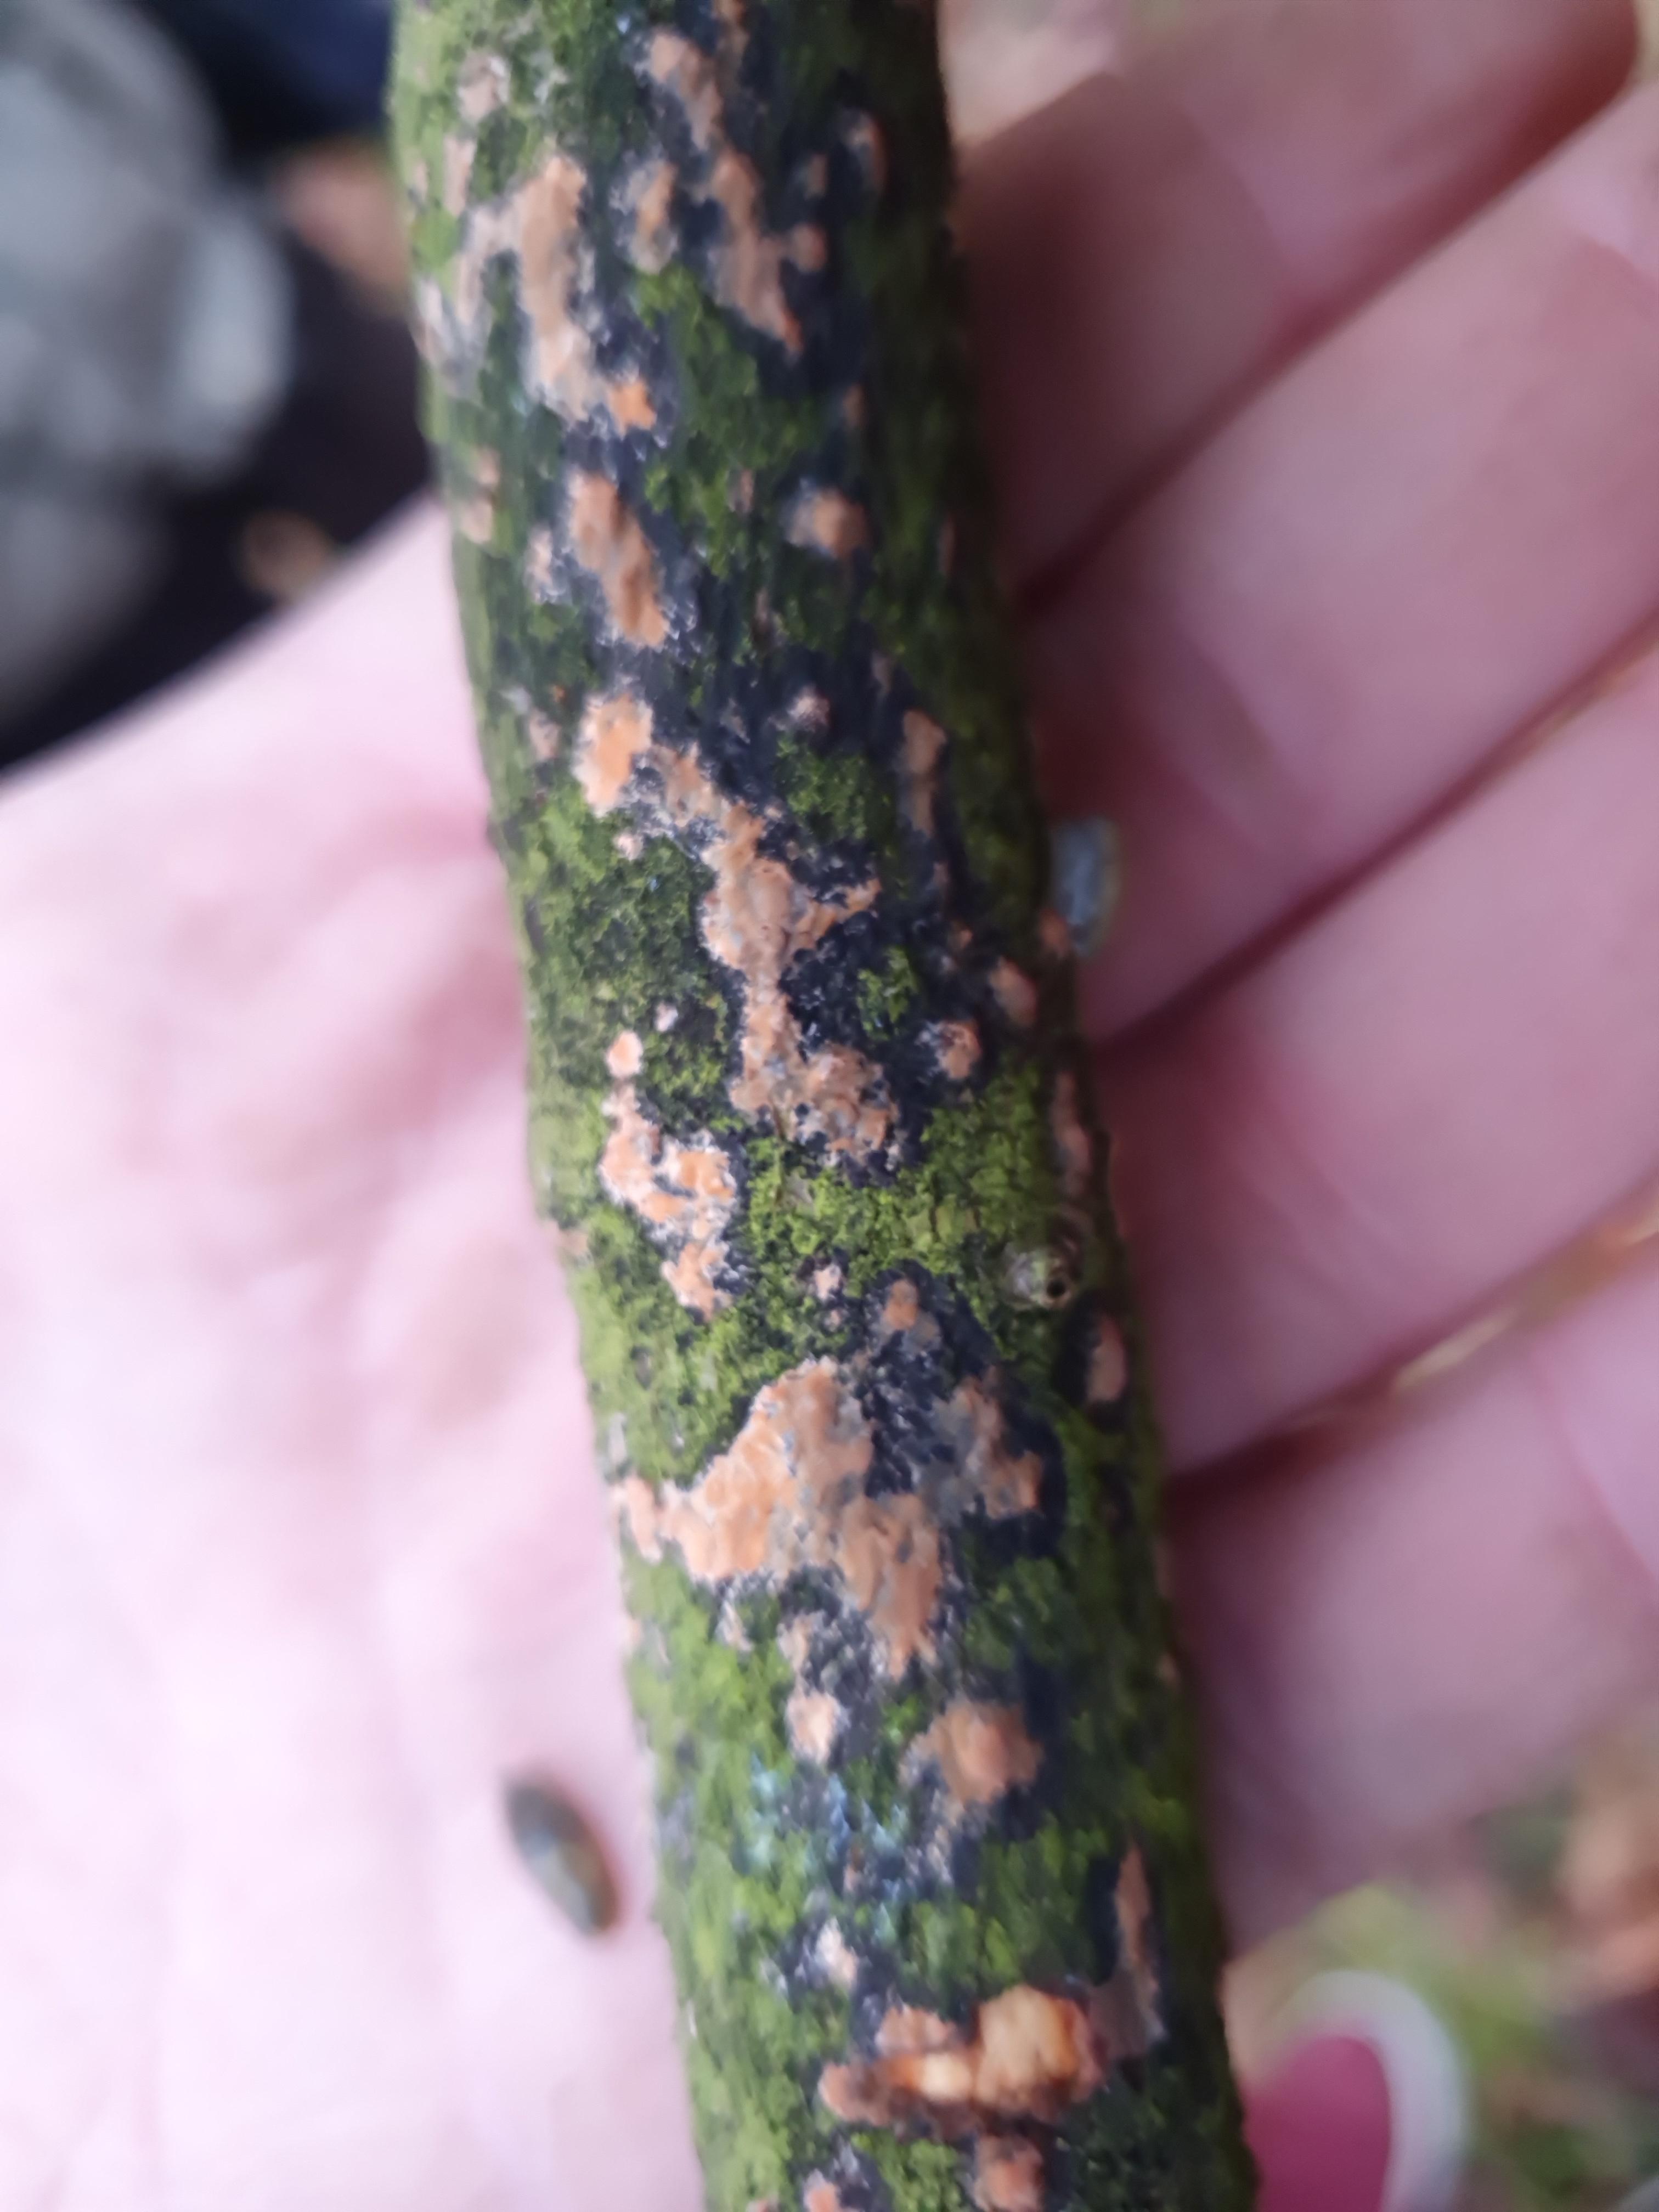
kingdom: Fungi
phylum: Basidiomycota
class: Agaricomycetes
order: Russulales
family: Peniophoraceae
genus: Peniophora
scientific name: Peniophora incarnata
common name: laksefarvet voksskind
